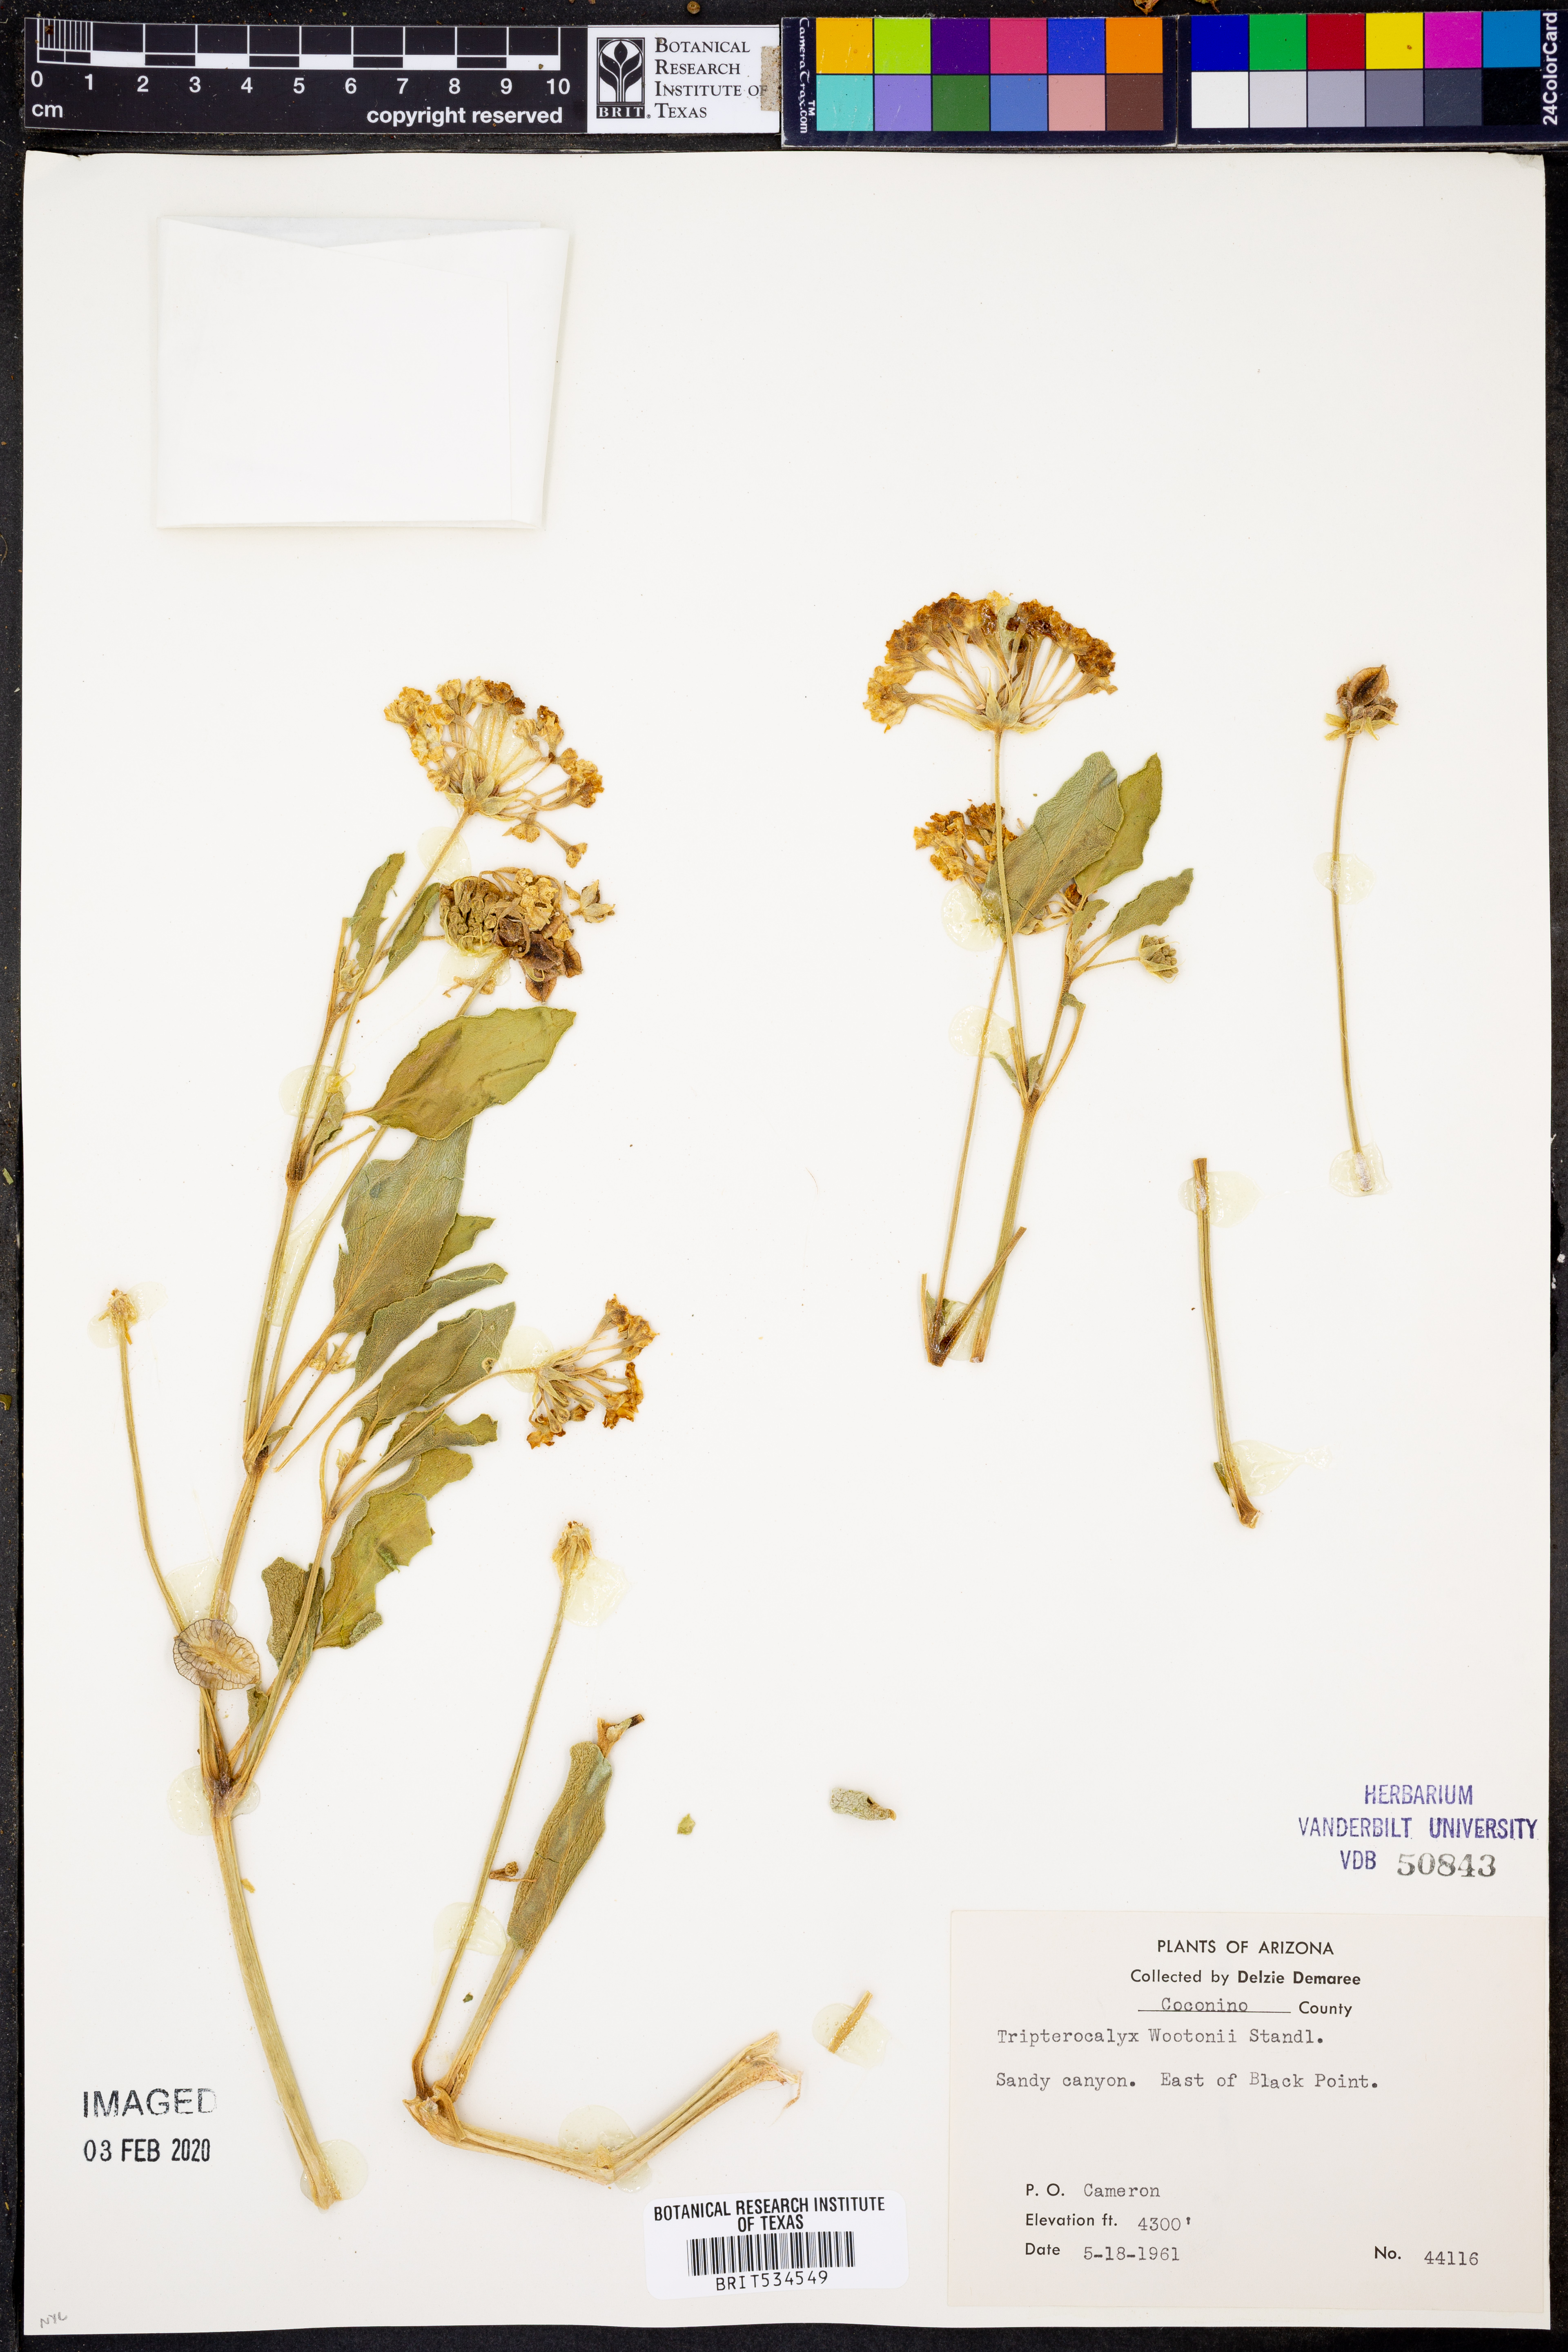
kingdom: Plantae
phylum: Tracheophyta
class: Magnoliopsida
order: Caryophyllales
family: Nyctaginaceae
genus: Tripterocalyx
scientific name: Tripterocalyx wootonii
